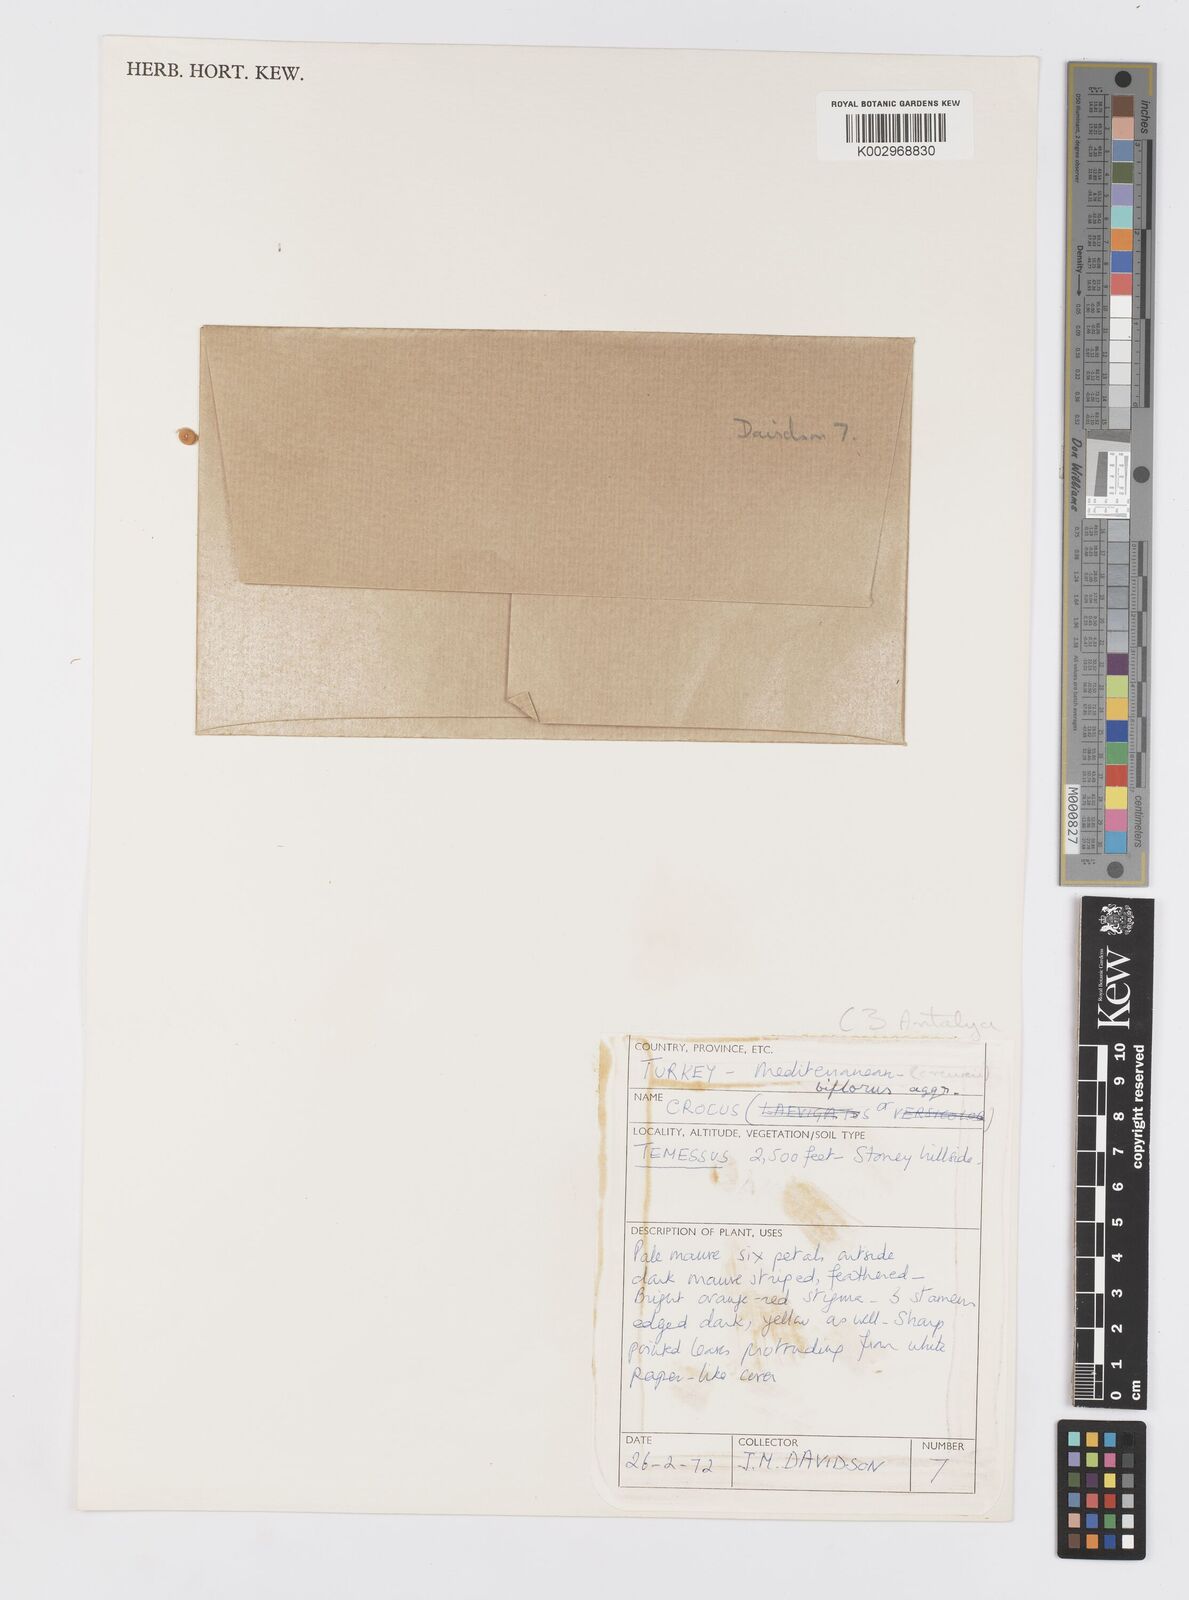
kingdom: Plantae
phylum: Tracheophyta
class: Liliopsida
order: Asparagales
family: Iridaceae
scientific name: Iridaceae
